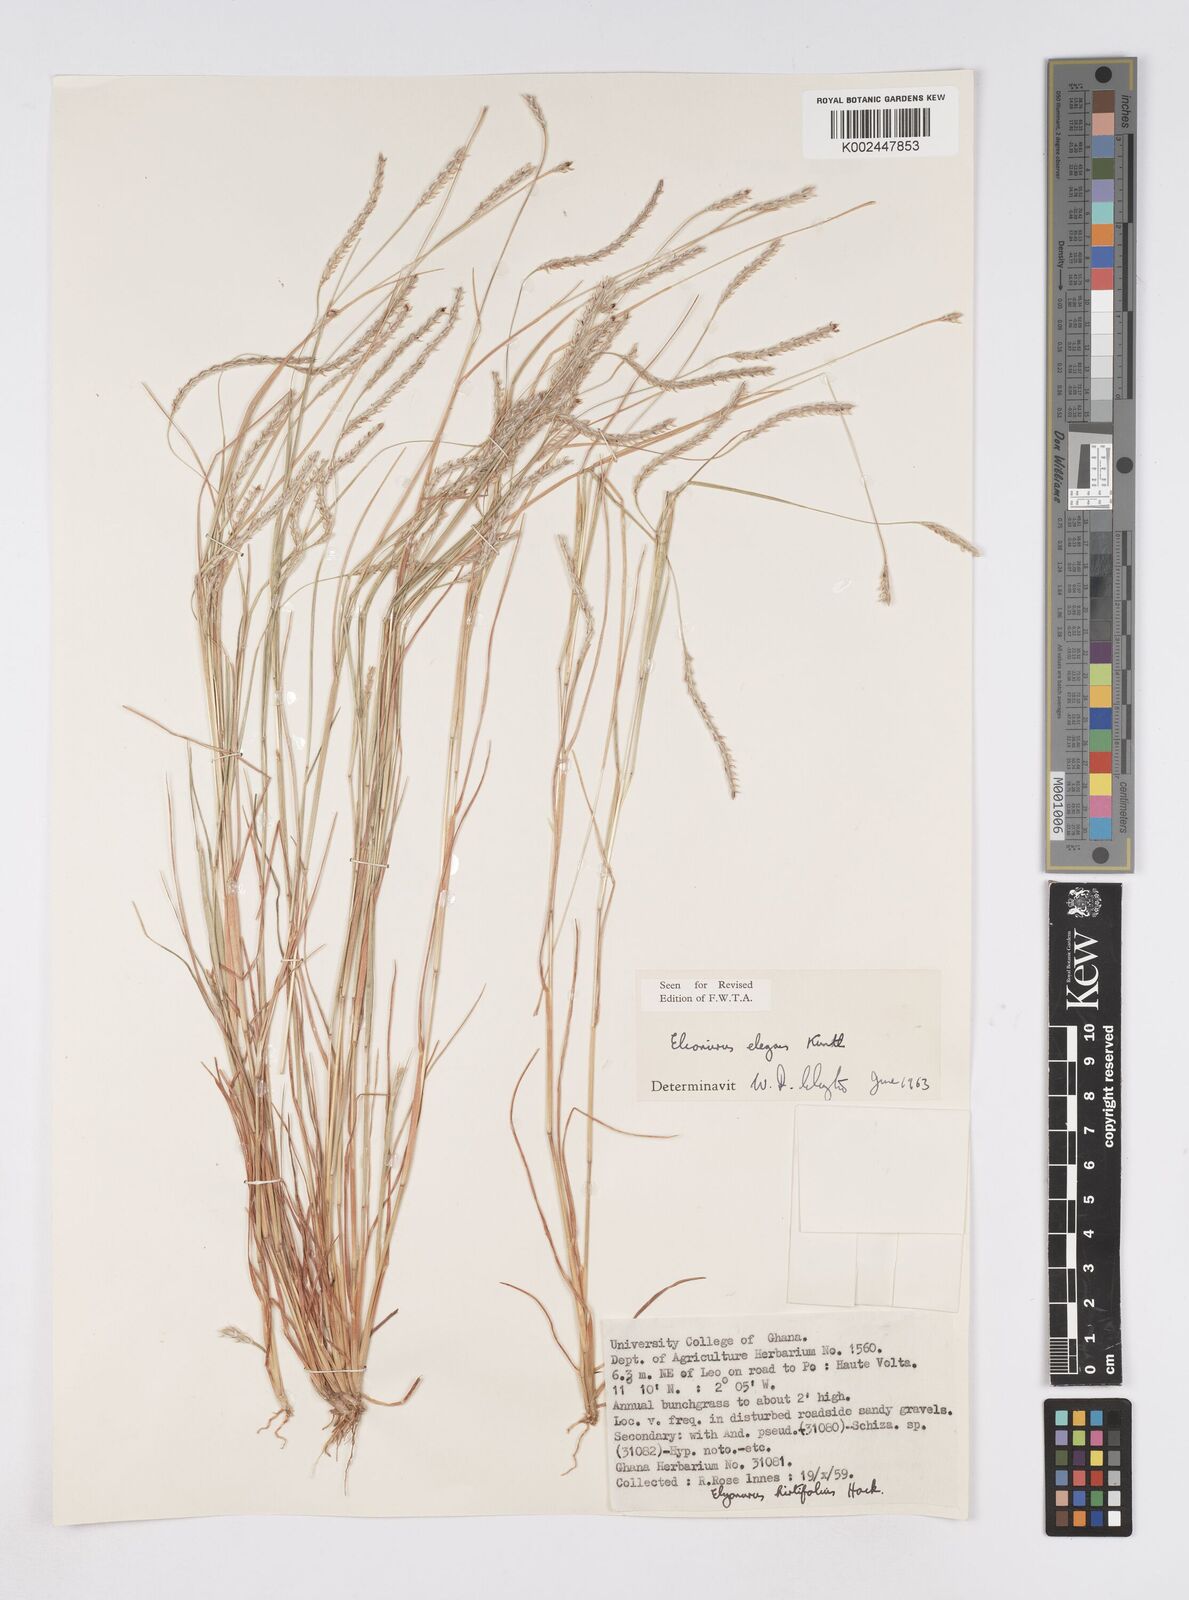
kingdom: Plantae
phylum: Tracheophyta
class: Liliopsida
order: Poales
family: Poaceae
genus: Elionurus
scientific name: Elionurus elegans
